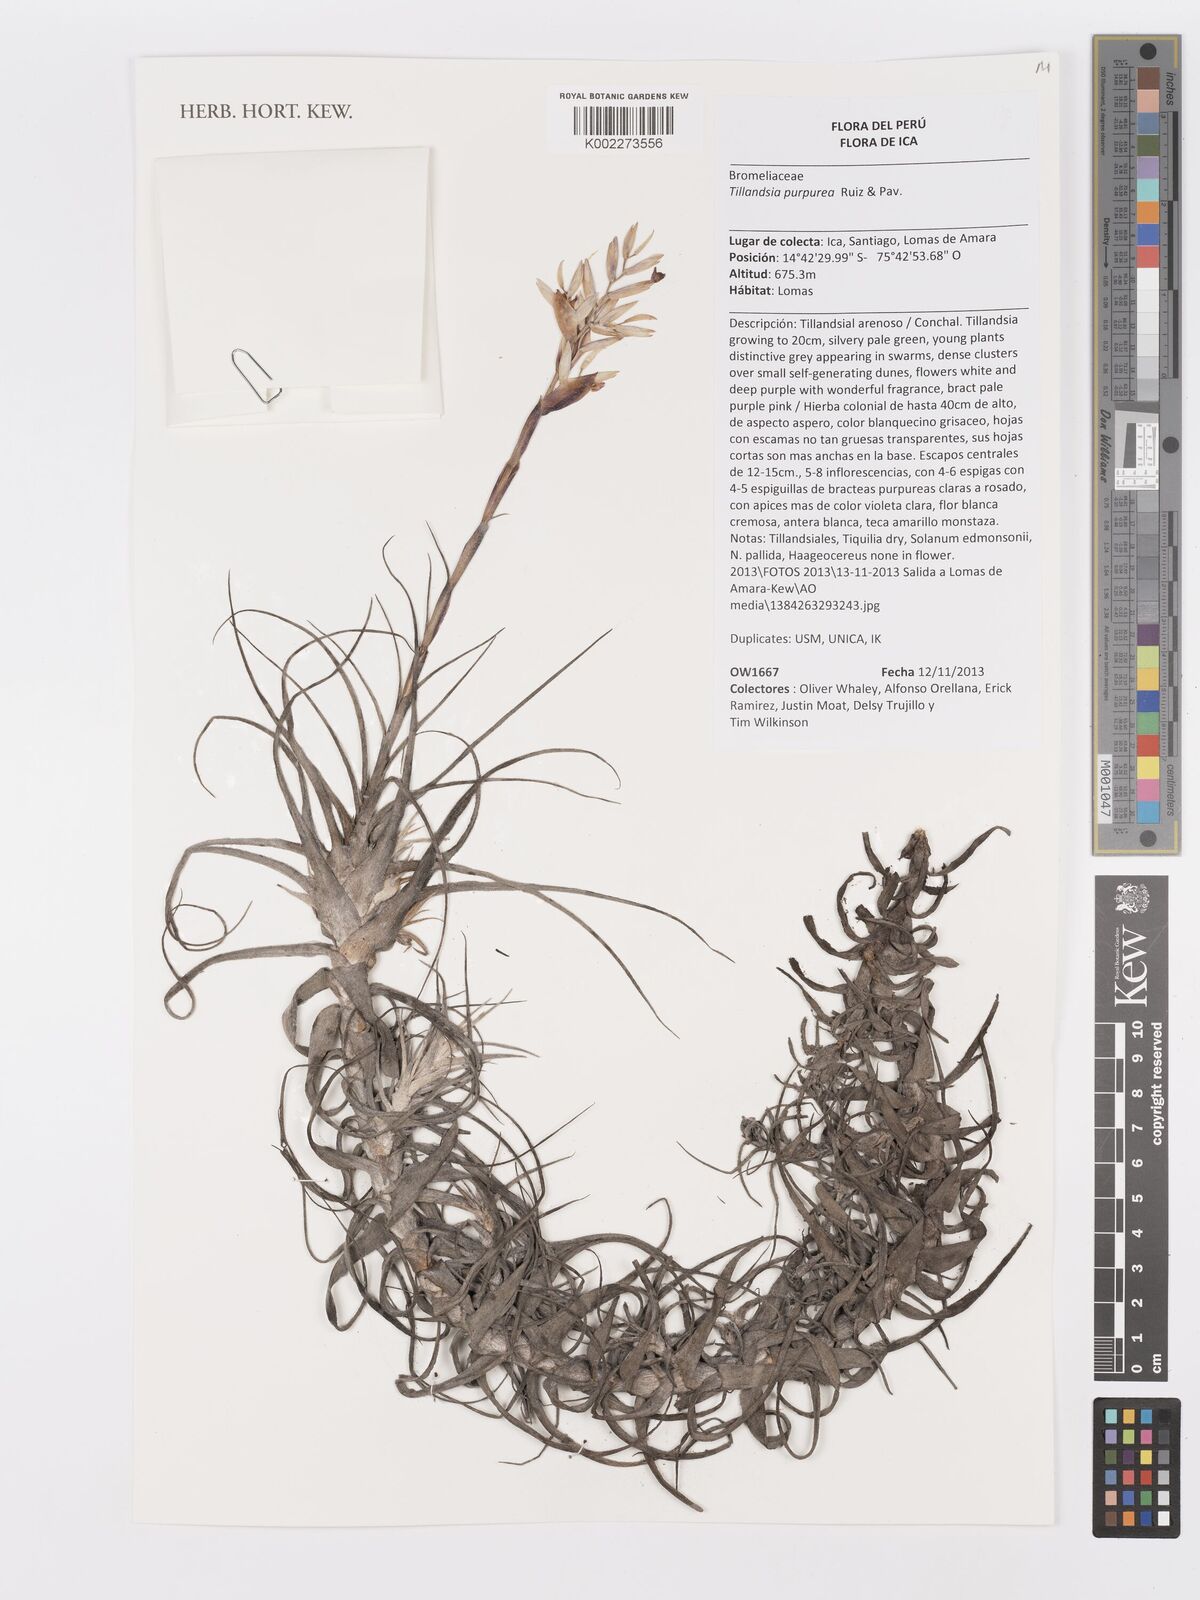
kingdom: Plantae
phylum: Tracheophyta
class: Liliopsida
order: Poales
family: Bromeliaceae
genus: Tillandsia
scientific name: Tillandsia purpurea
